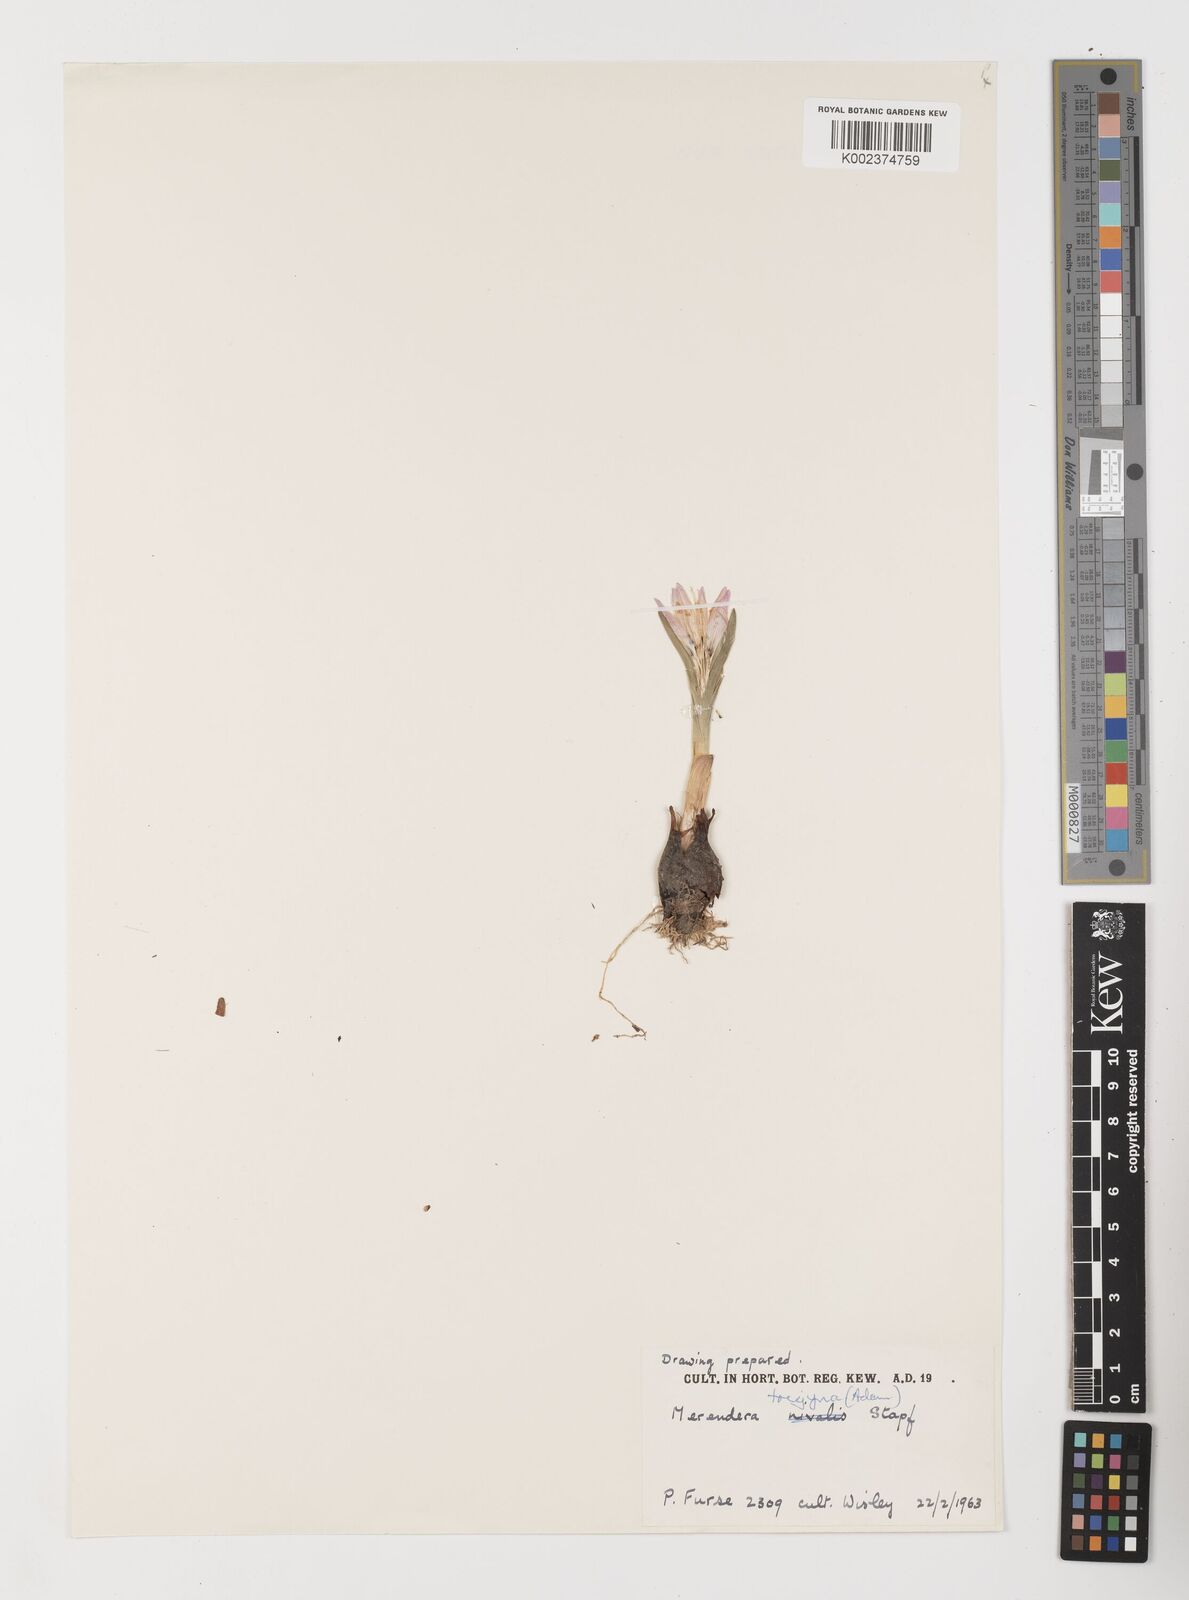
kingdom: Plantae
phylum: Tracheophyta
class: Liliopsida
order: Liliales
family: Colchicaceae
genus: Colchicum
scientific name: Colchicum trigynum
